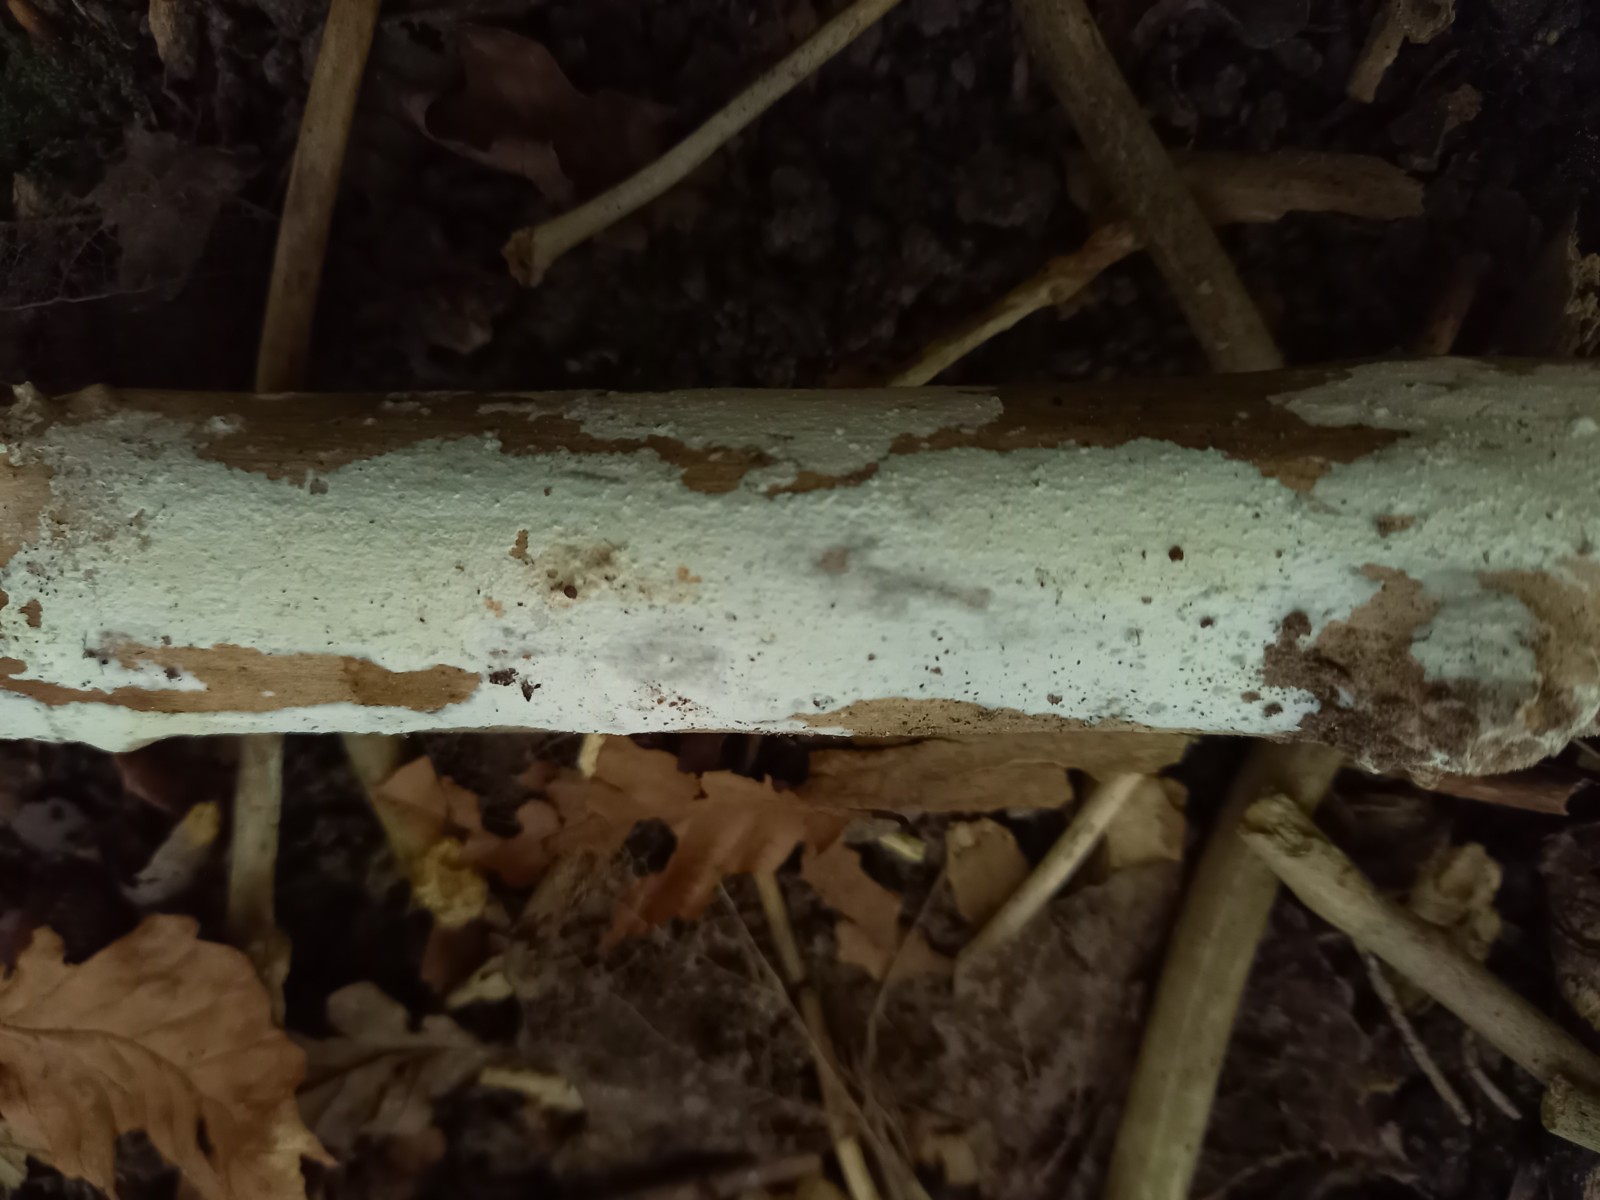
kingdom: Fungi
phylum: Basidiomycota
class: Agaricomycetes
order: Corticiales
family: Corticiaceae
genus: Lyomyces
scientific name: Lyomyces sambuci
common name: almindelig hyldehinde
